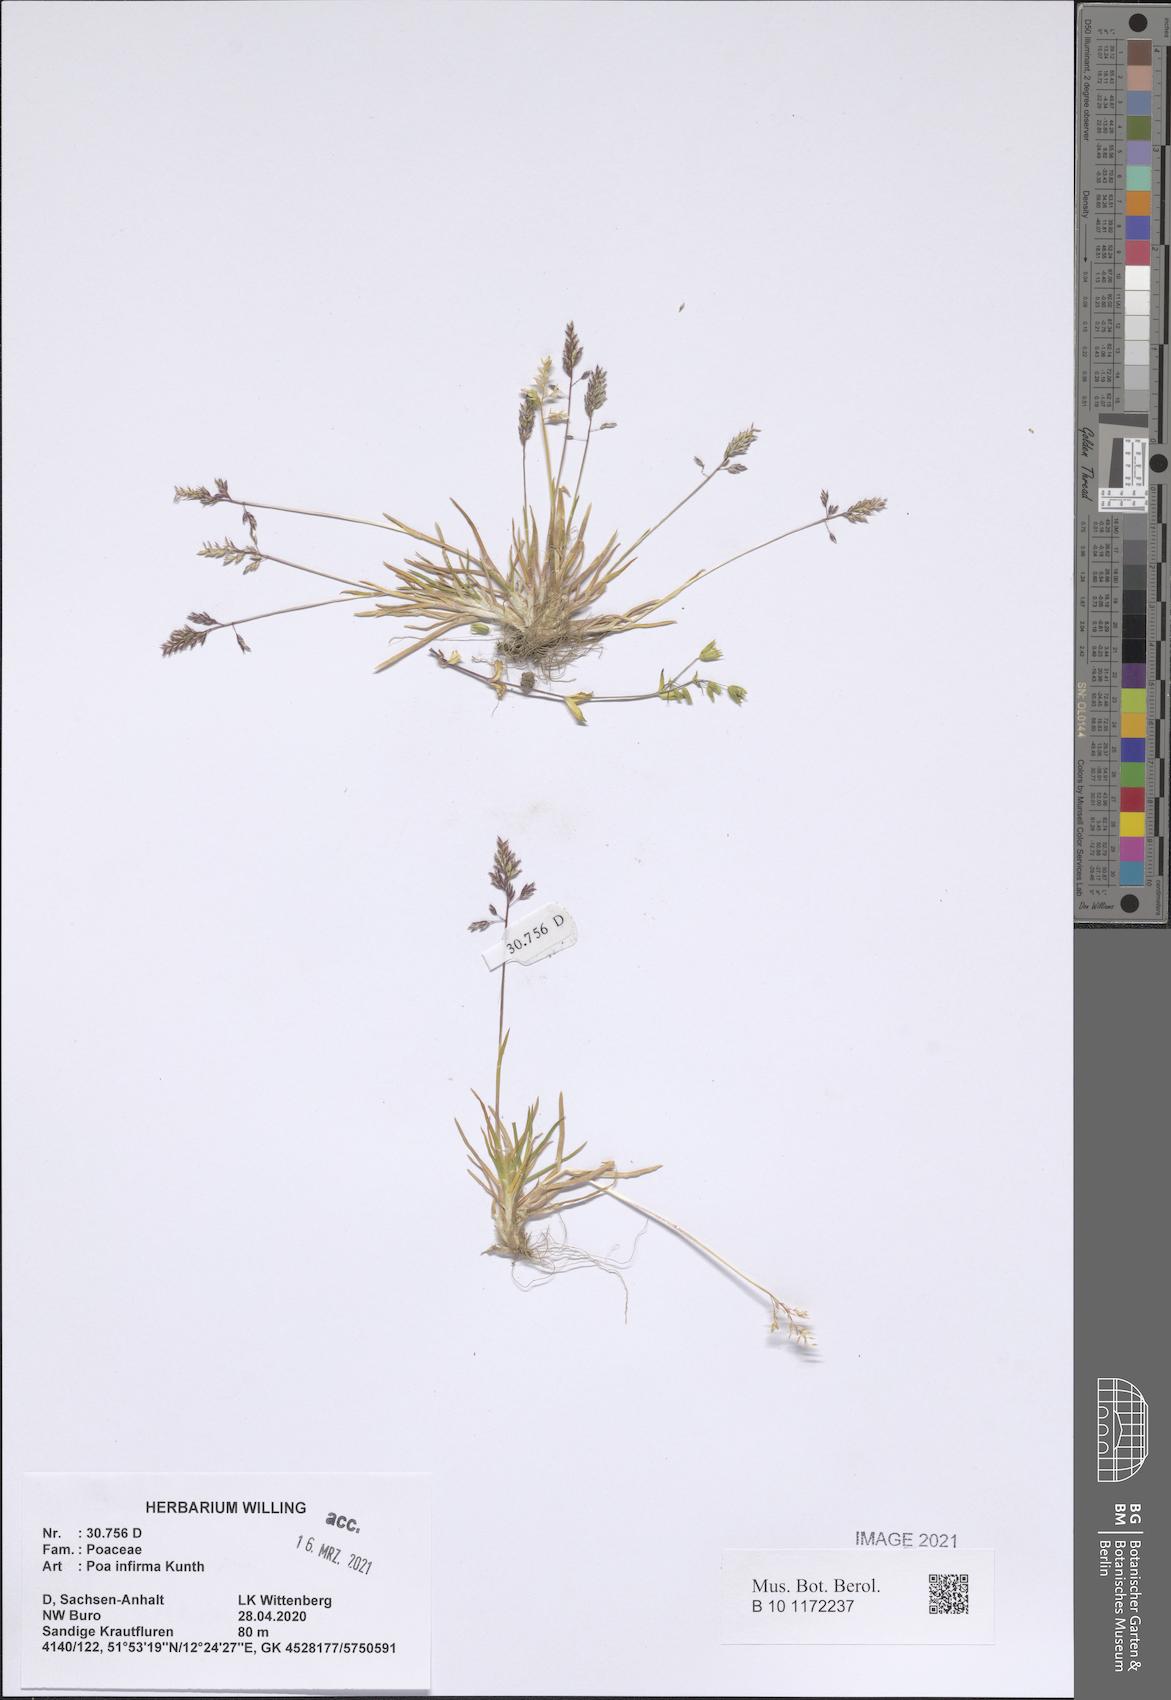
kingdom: Plantae
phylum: Tracheophyta
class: Liliopsida
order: Poales
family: Poaceae
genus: Poa
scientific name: Poa infirma
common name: Weak bluegrass
